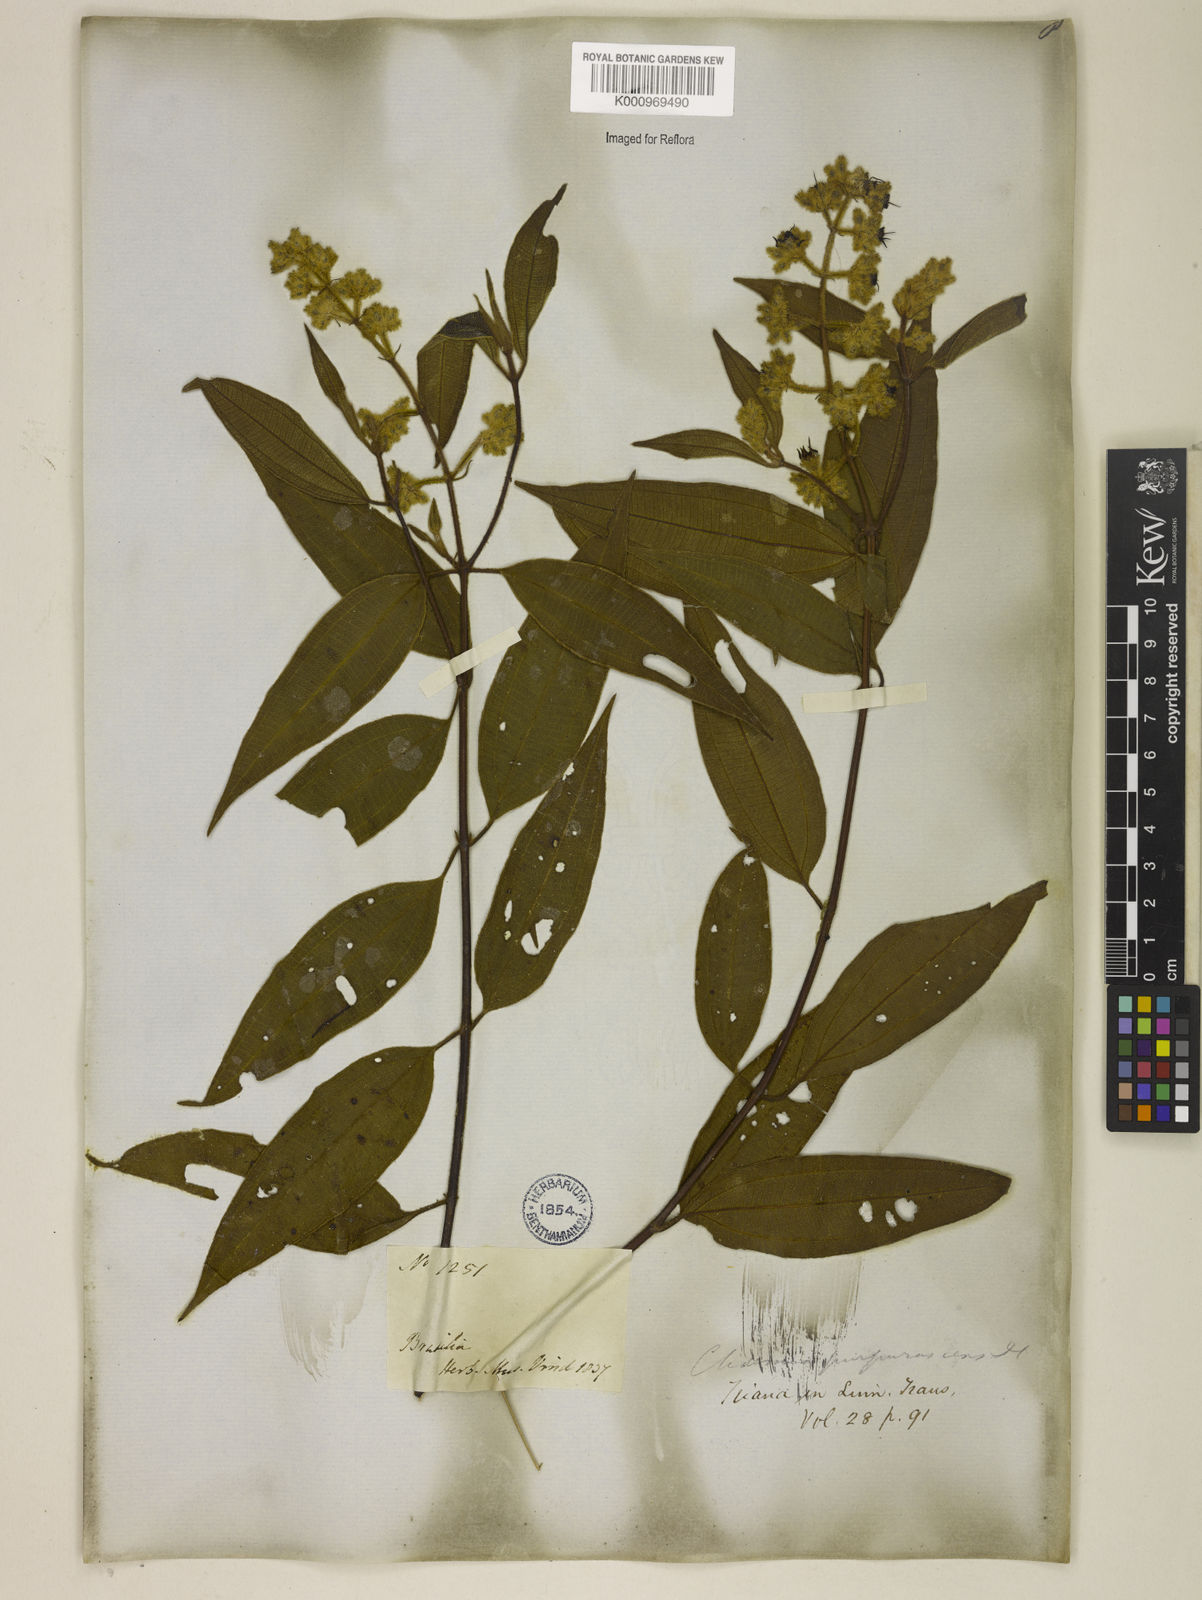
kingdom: Plantae
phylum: Tracheophyta
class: Magnoliopsida
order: Myrtales
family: Melastomataceae
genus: Miconia
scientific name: Miconia microstachya
